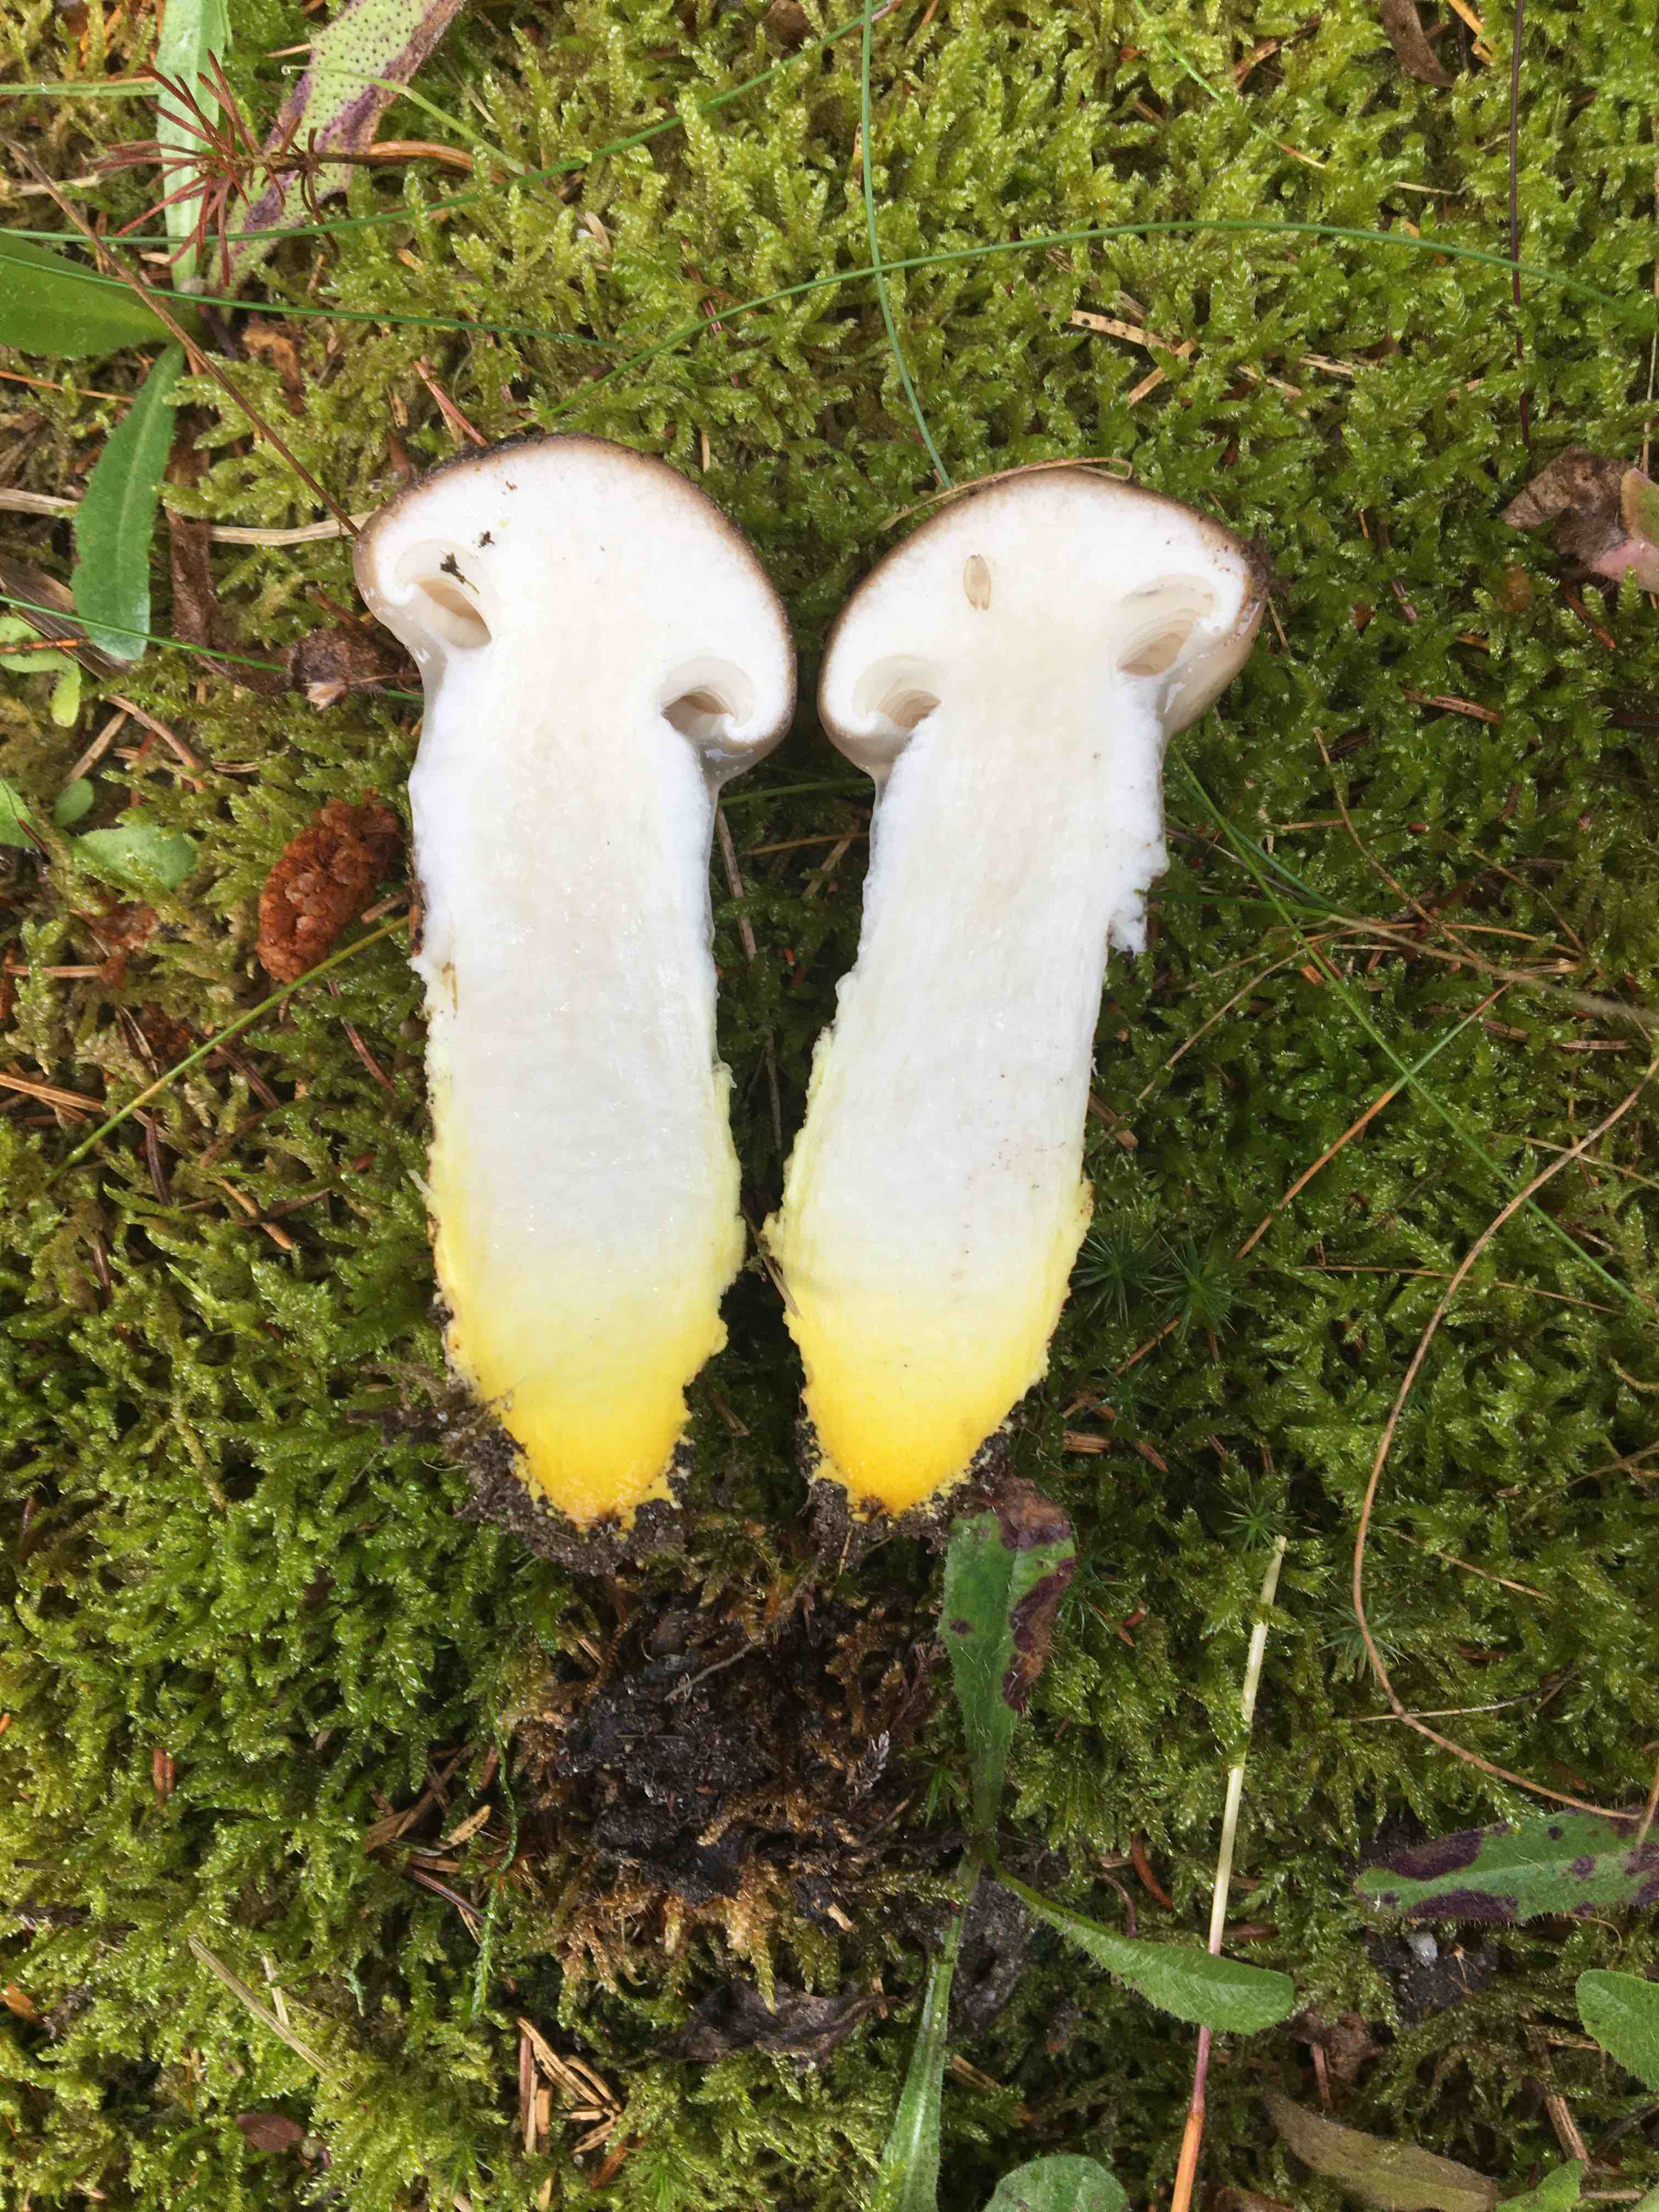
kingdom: Fungi
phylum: Basidiomycota
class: Agaricomycetes
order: Boletales
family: Gomphidiaceae
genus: Gomphidius
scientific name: Gomphidius glutinosus
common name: grå slimslør
